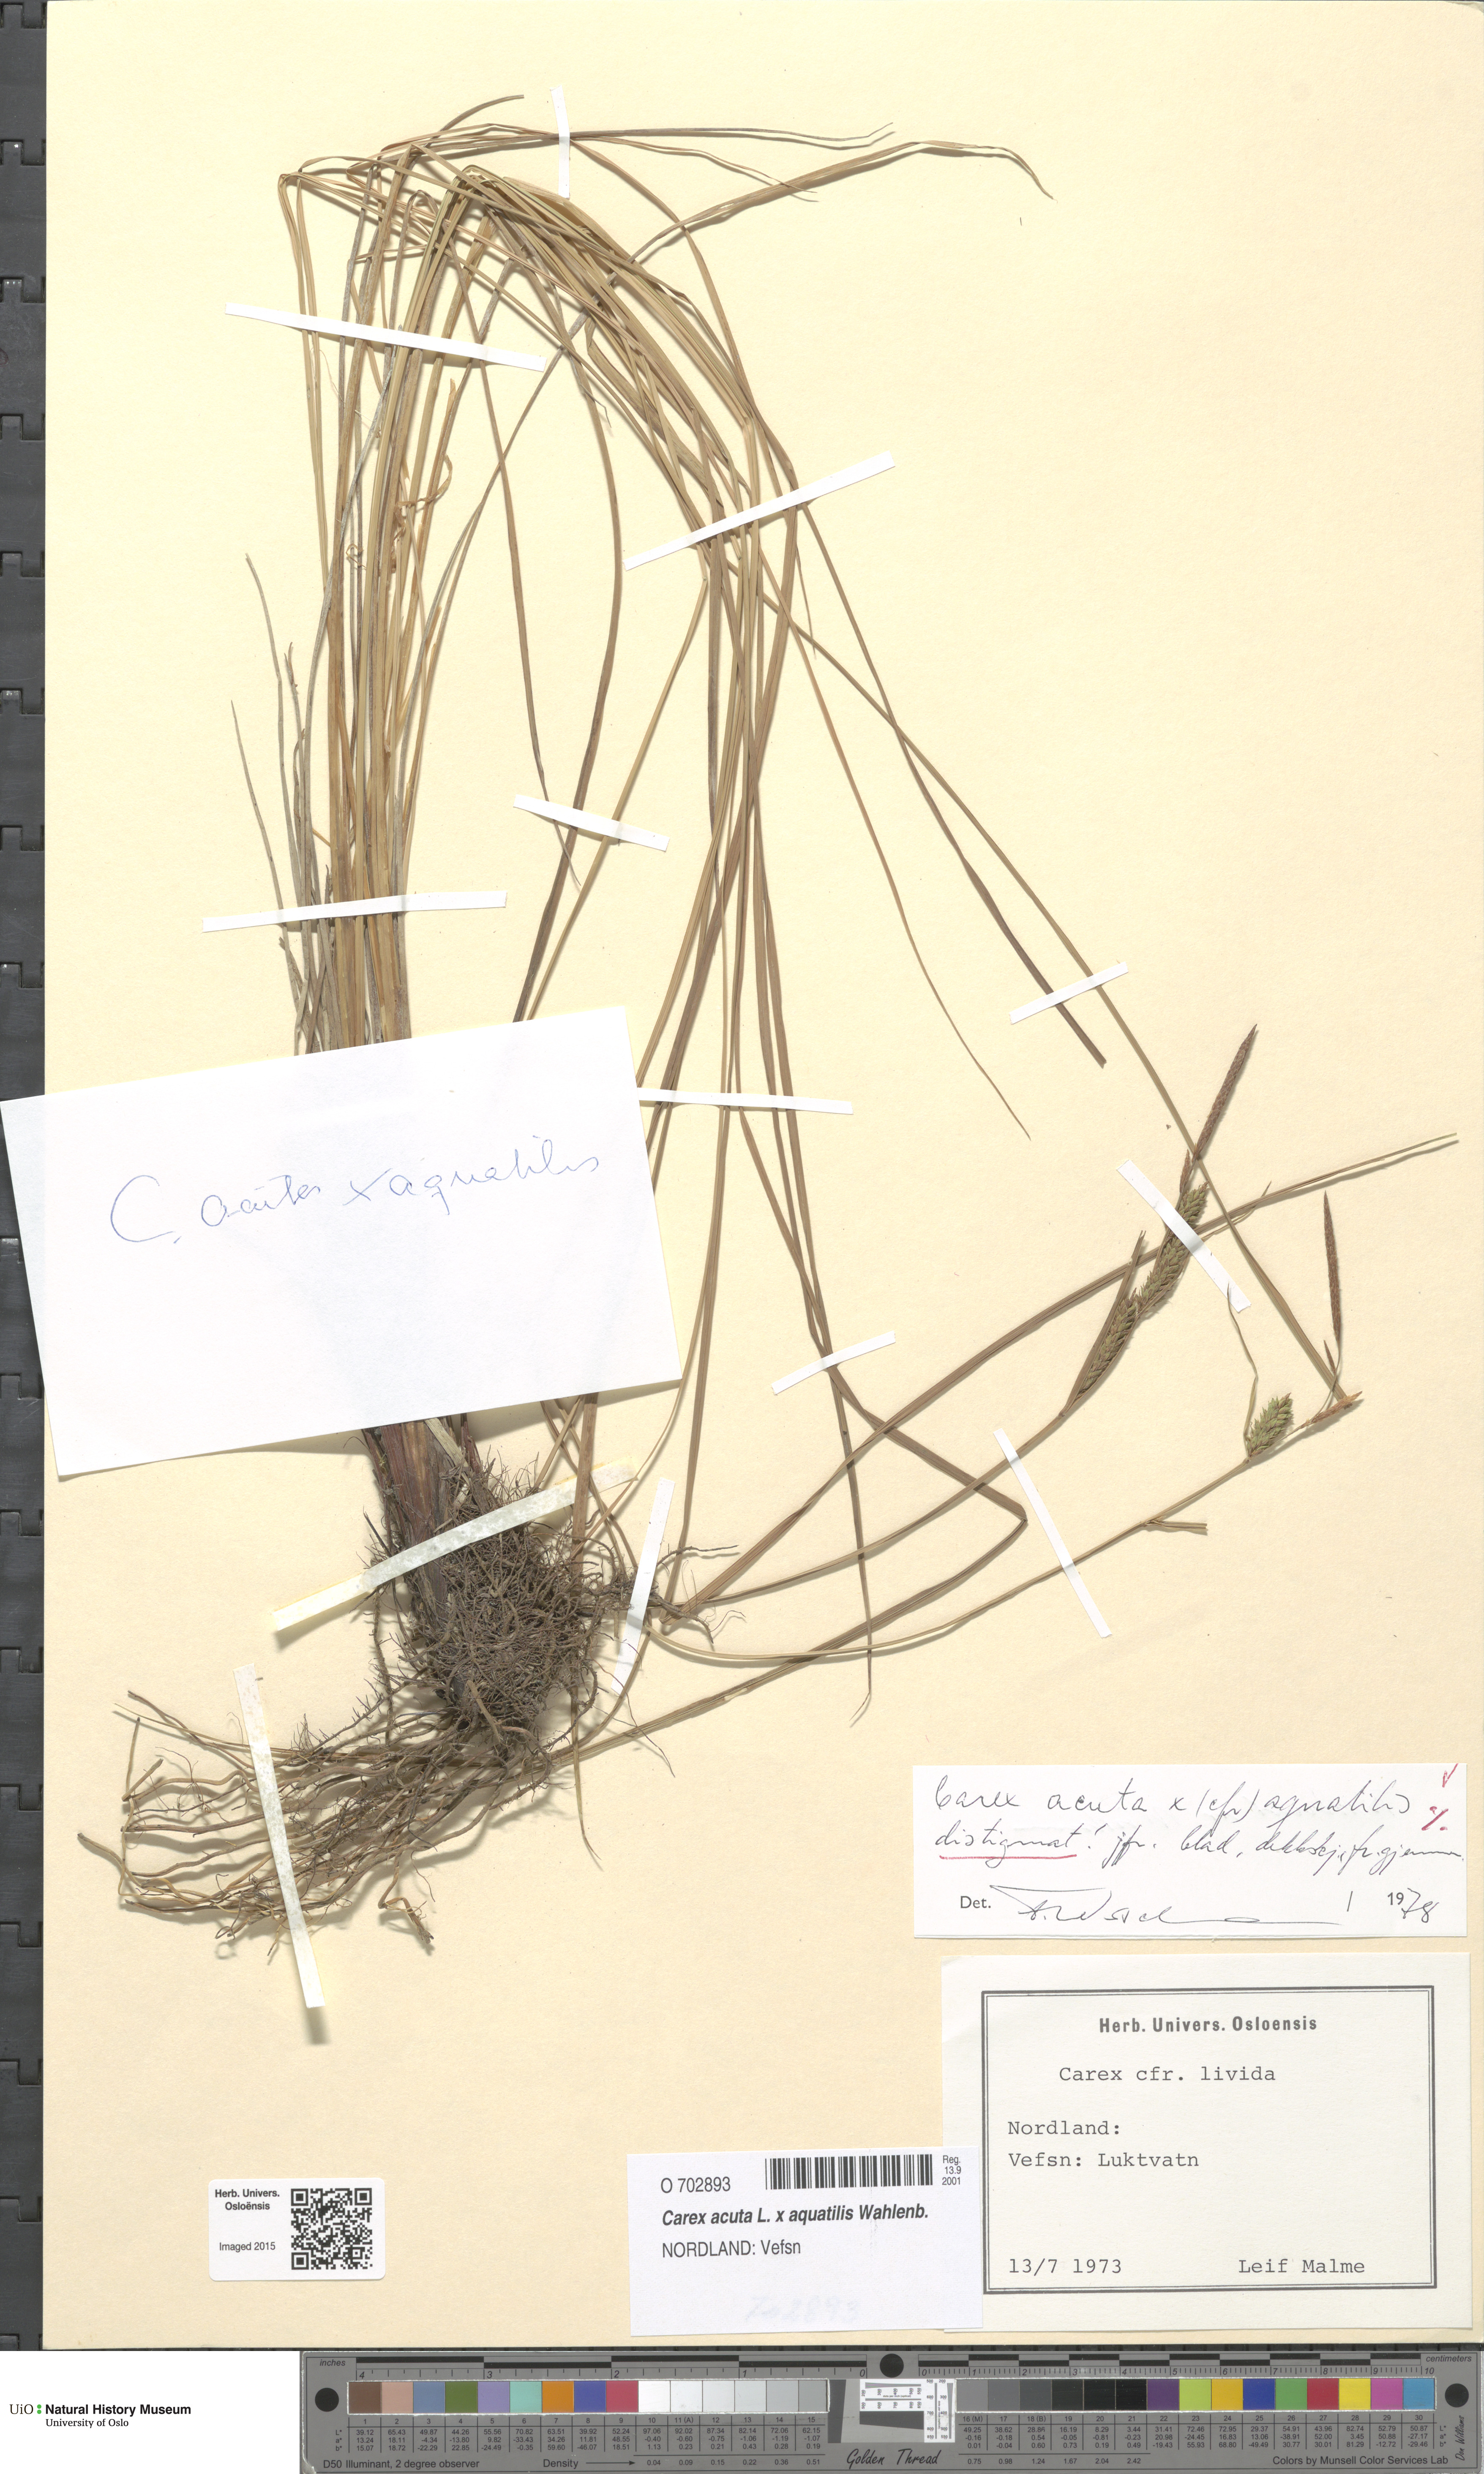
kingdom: Plantae
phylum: Tracheophyta
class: Liliopsida
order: Poales
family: Cyperaceae
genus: Carex
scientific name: Carex
